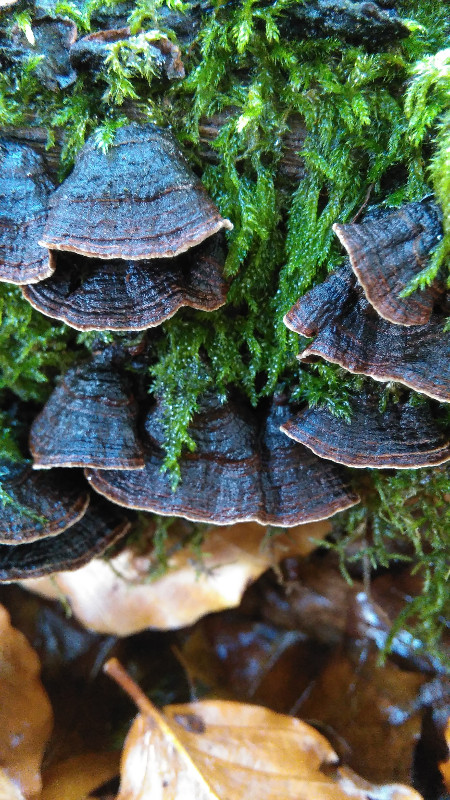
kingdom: Fungi
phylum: Basidiomycota
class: Agaricomycetes
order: Hymenochaetales
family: Hymenochaetaceae
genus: Hymenochaete
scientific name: Hymenochaete rubiginosa
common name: stiv ruslædersvamp
